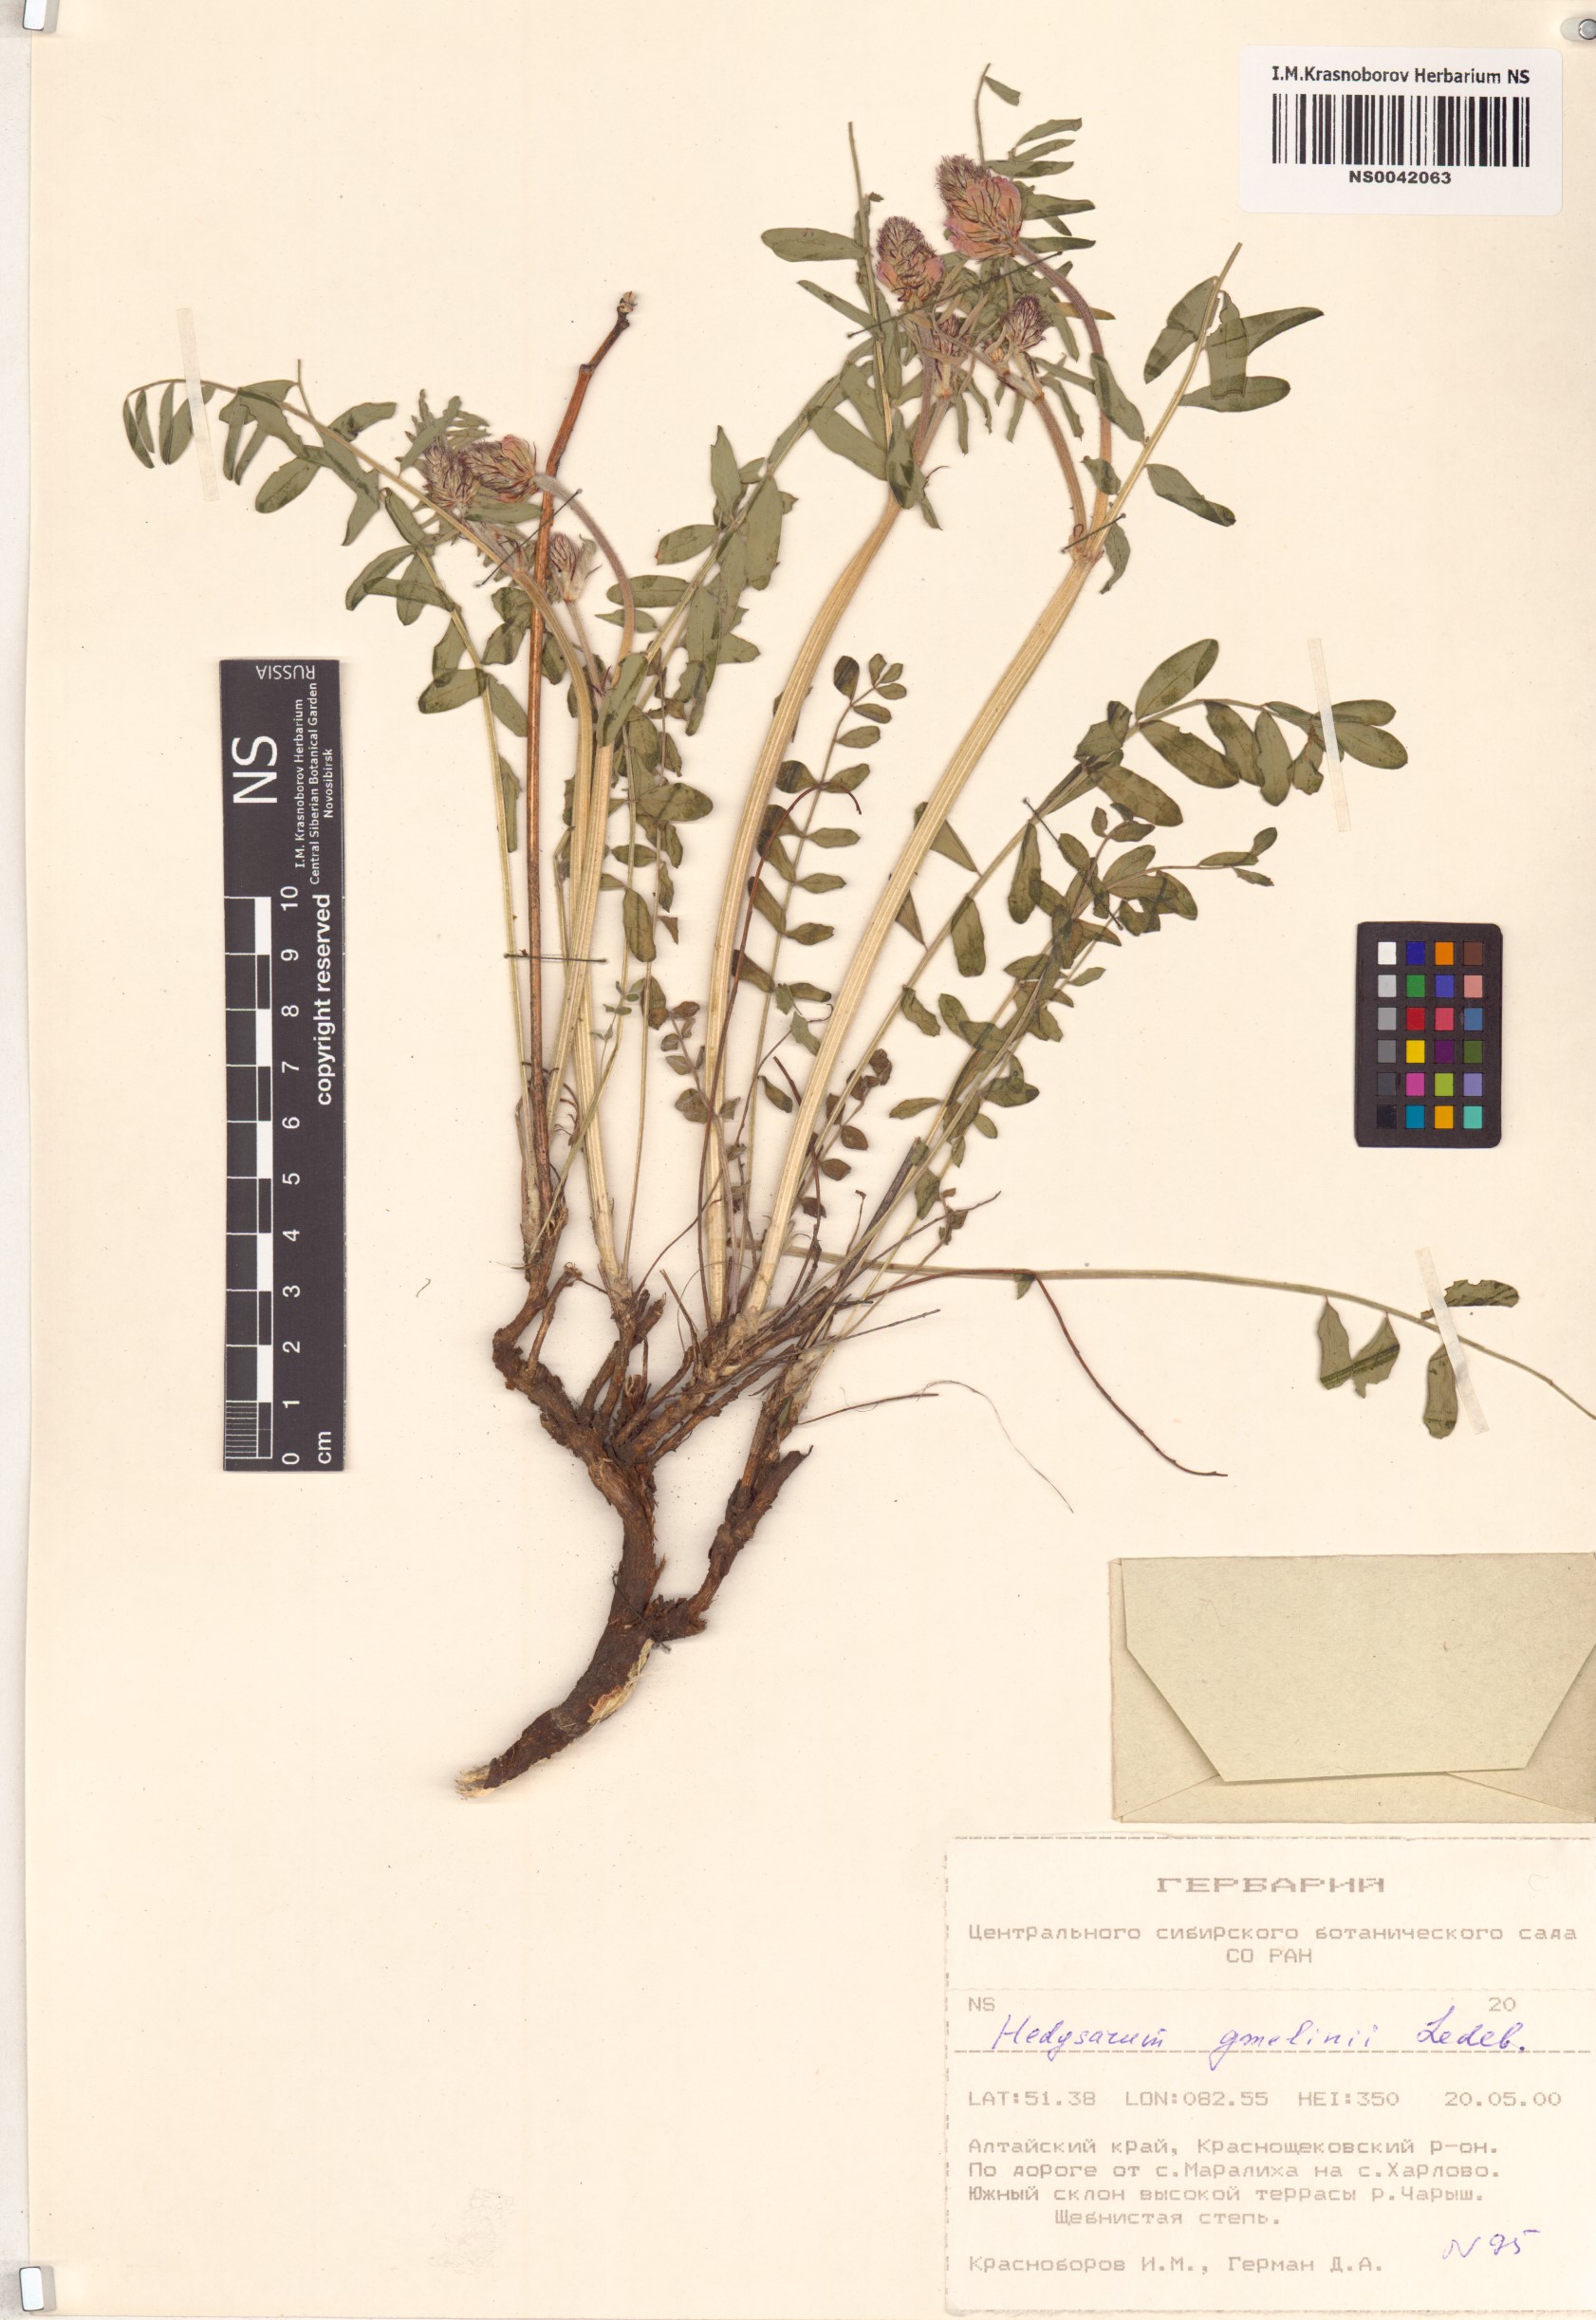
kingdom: Plantae
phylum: Tracheophyta
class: Magnoliopsida
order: Fabales
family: Fabaceae
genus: Hedysarum
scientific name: Hedysarum gmelinii
